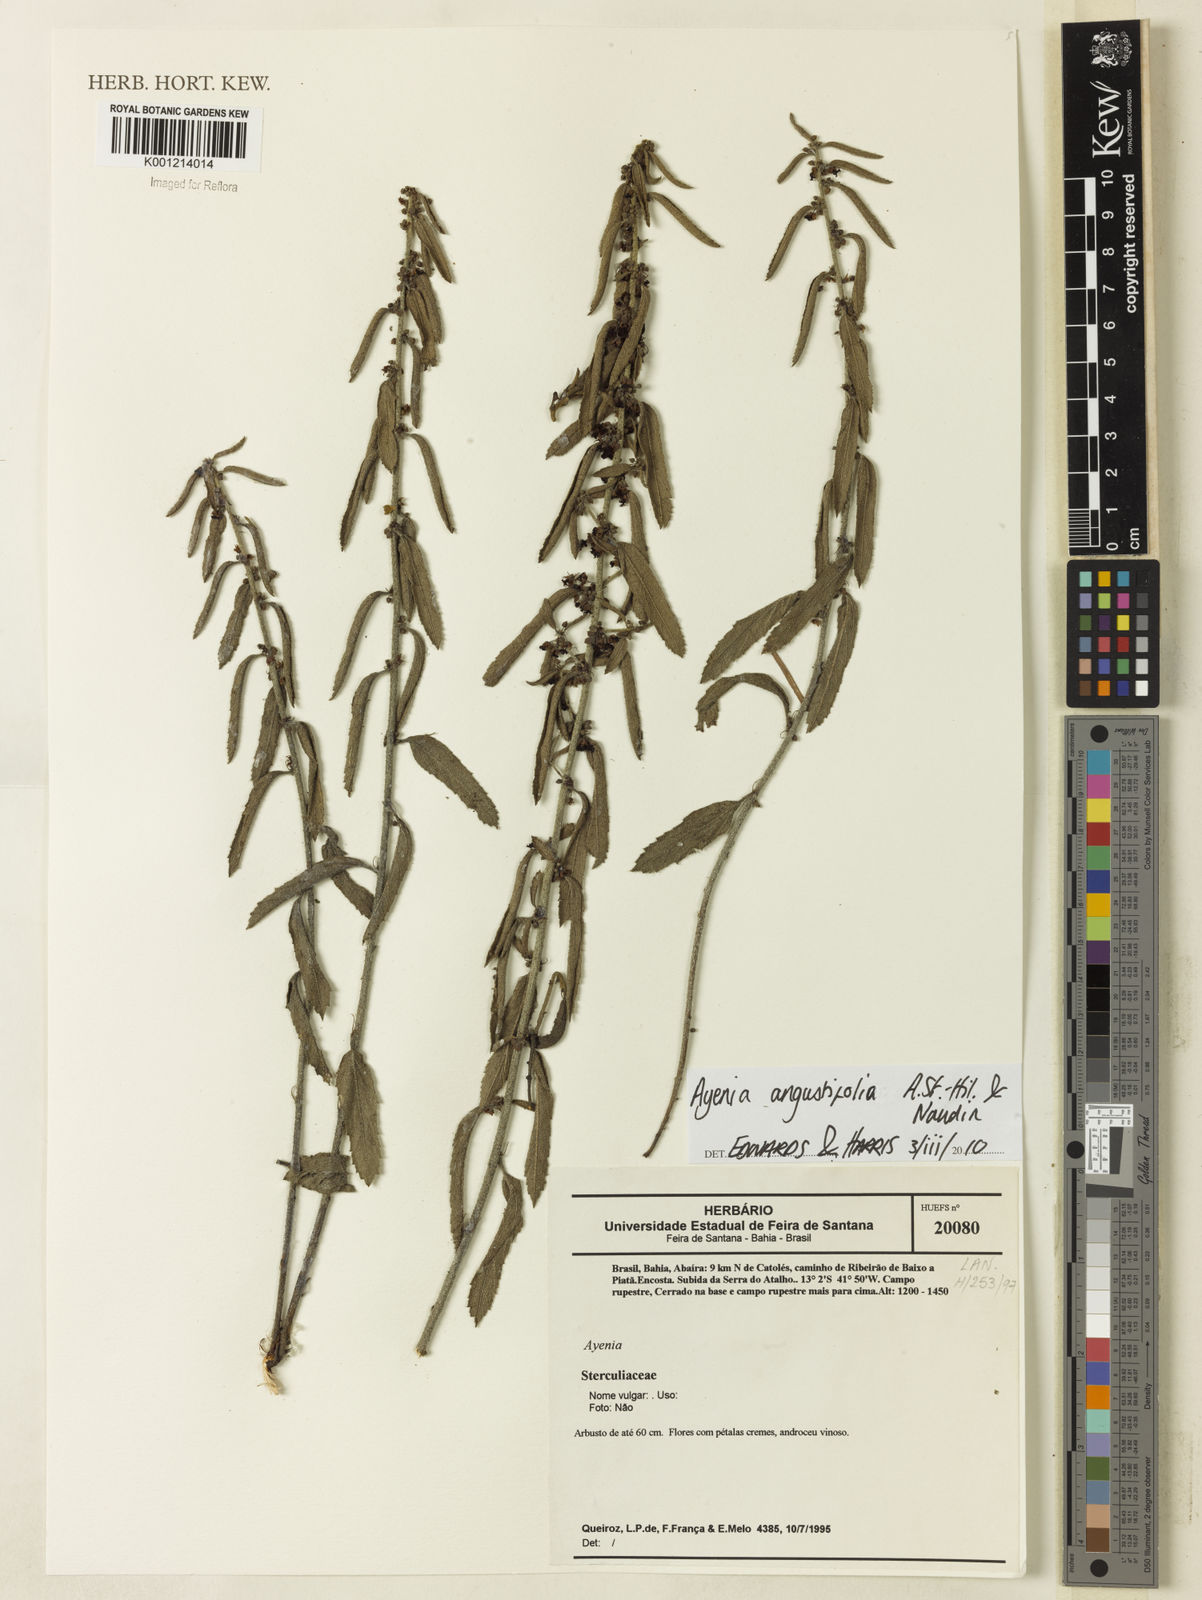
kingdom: Plantae
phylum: Tracheophyta
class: Magnoliopsida
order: Malvales
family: Malvaceae
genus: Ayenia
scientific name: Ayenia angustifolia
